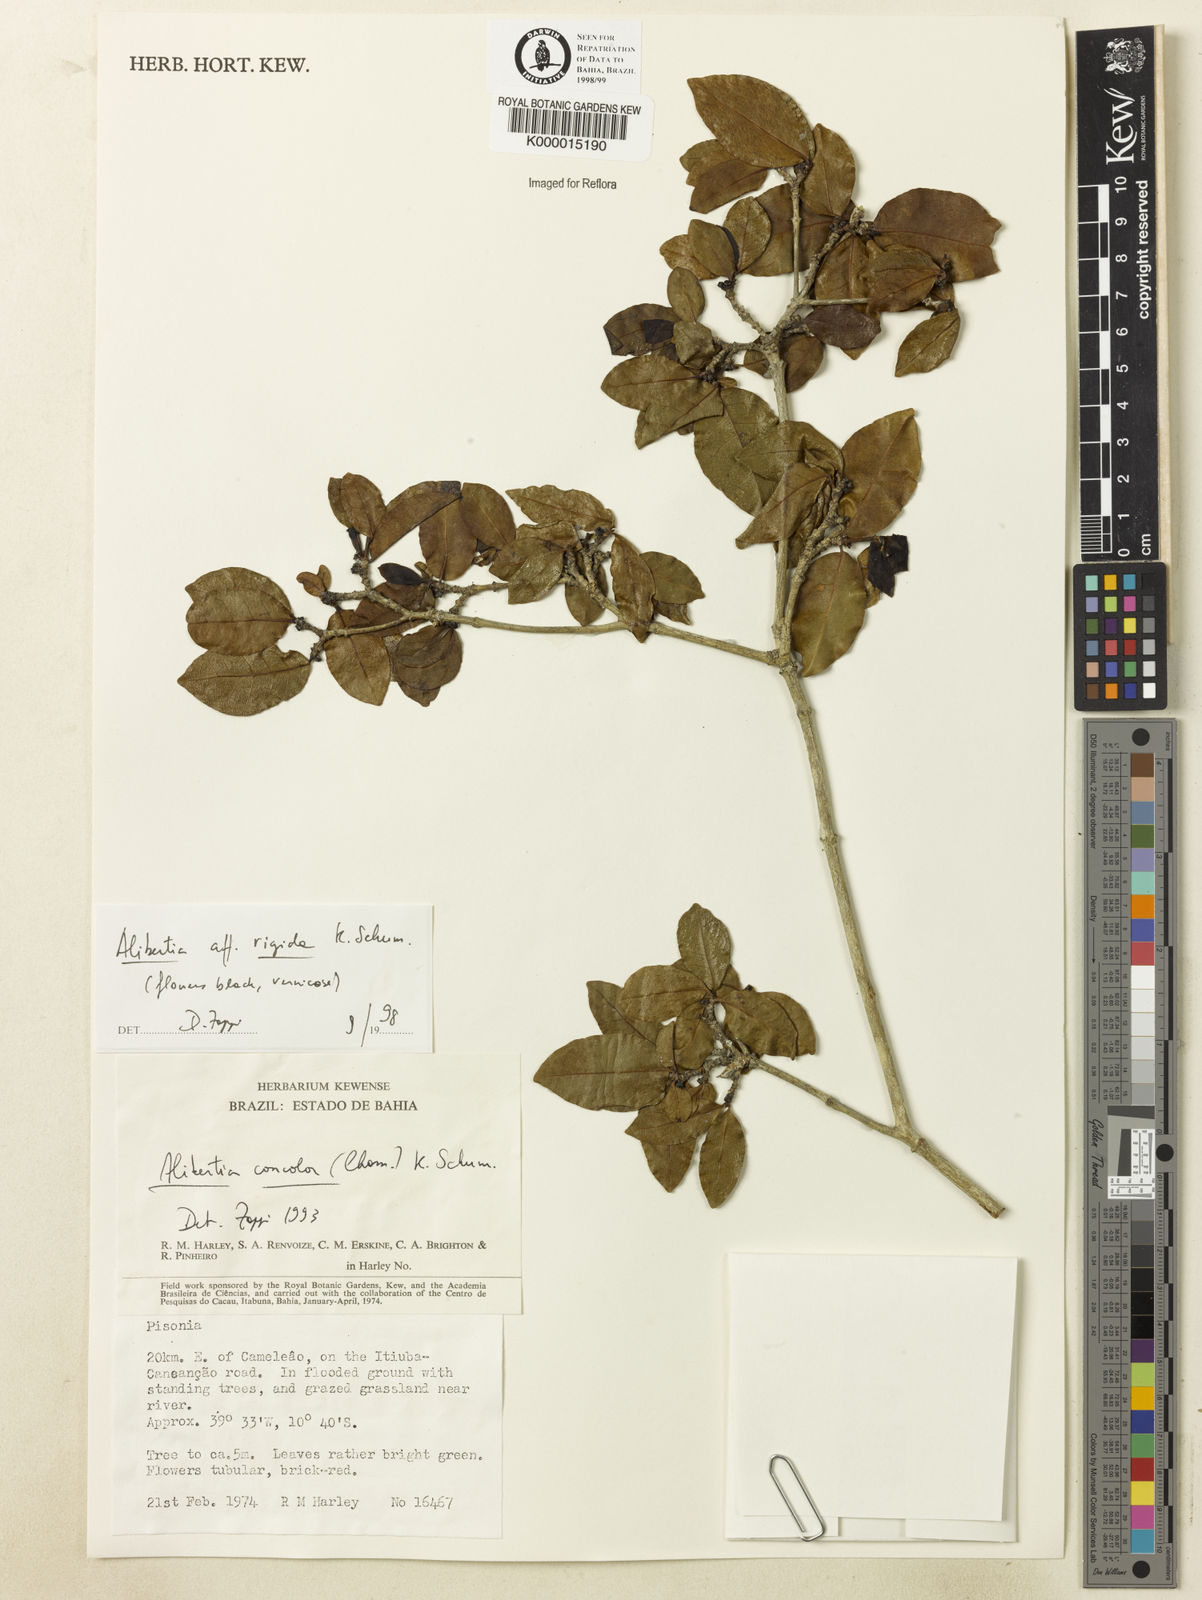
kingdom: Plantae
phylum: Tracheophyta
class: Magnoliopsida
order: Gentianales
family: Rubiaceae
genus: Cordiera
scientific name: Cordiera rigida
